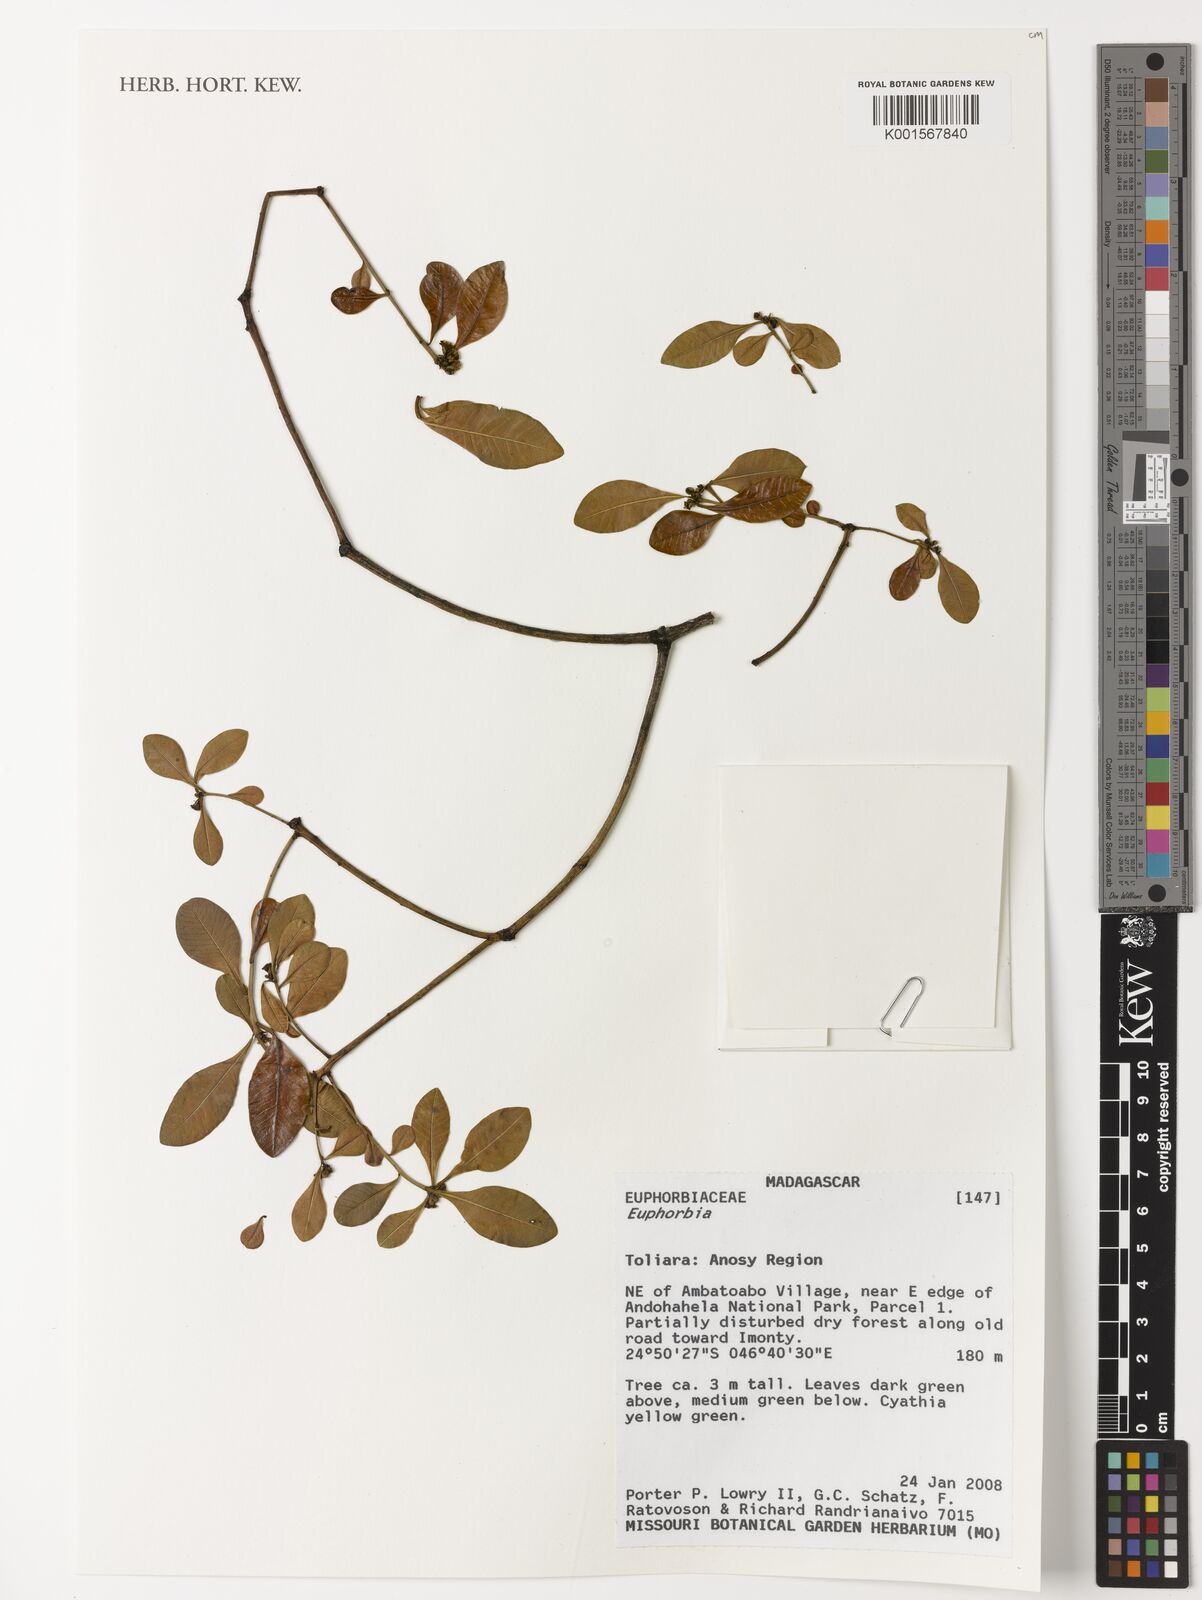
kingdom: Plantae
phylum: Tracheophyta
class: Magnoliopsida
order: Malpighiales
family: Euphorbiaceae
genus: Euphorbia
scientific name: Euphorbia
